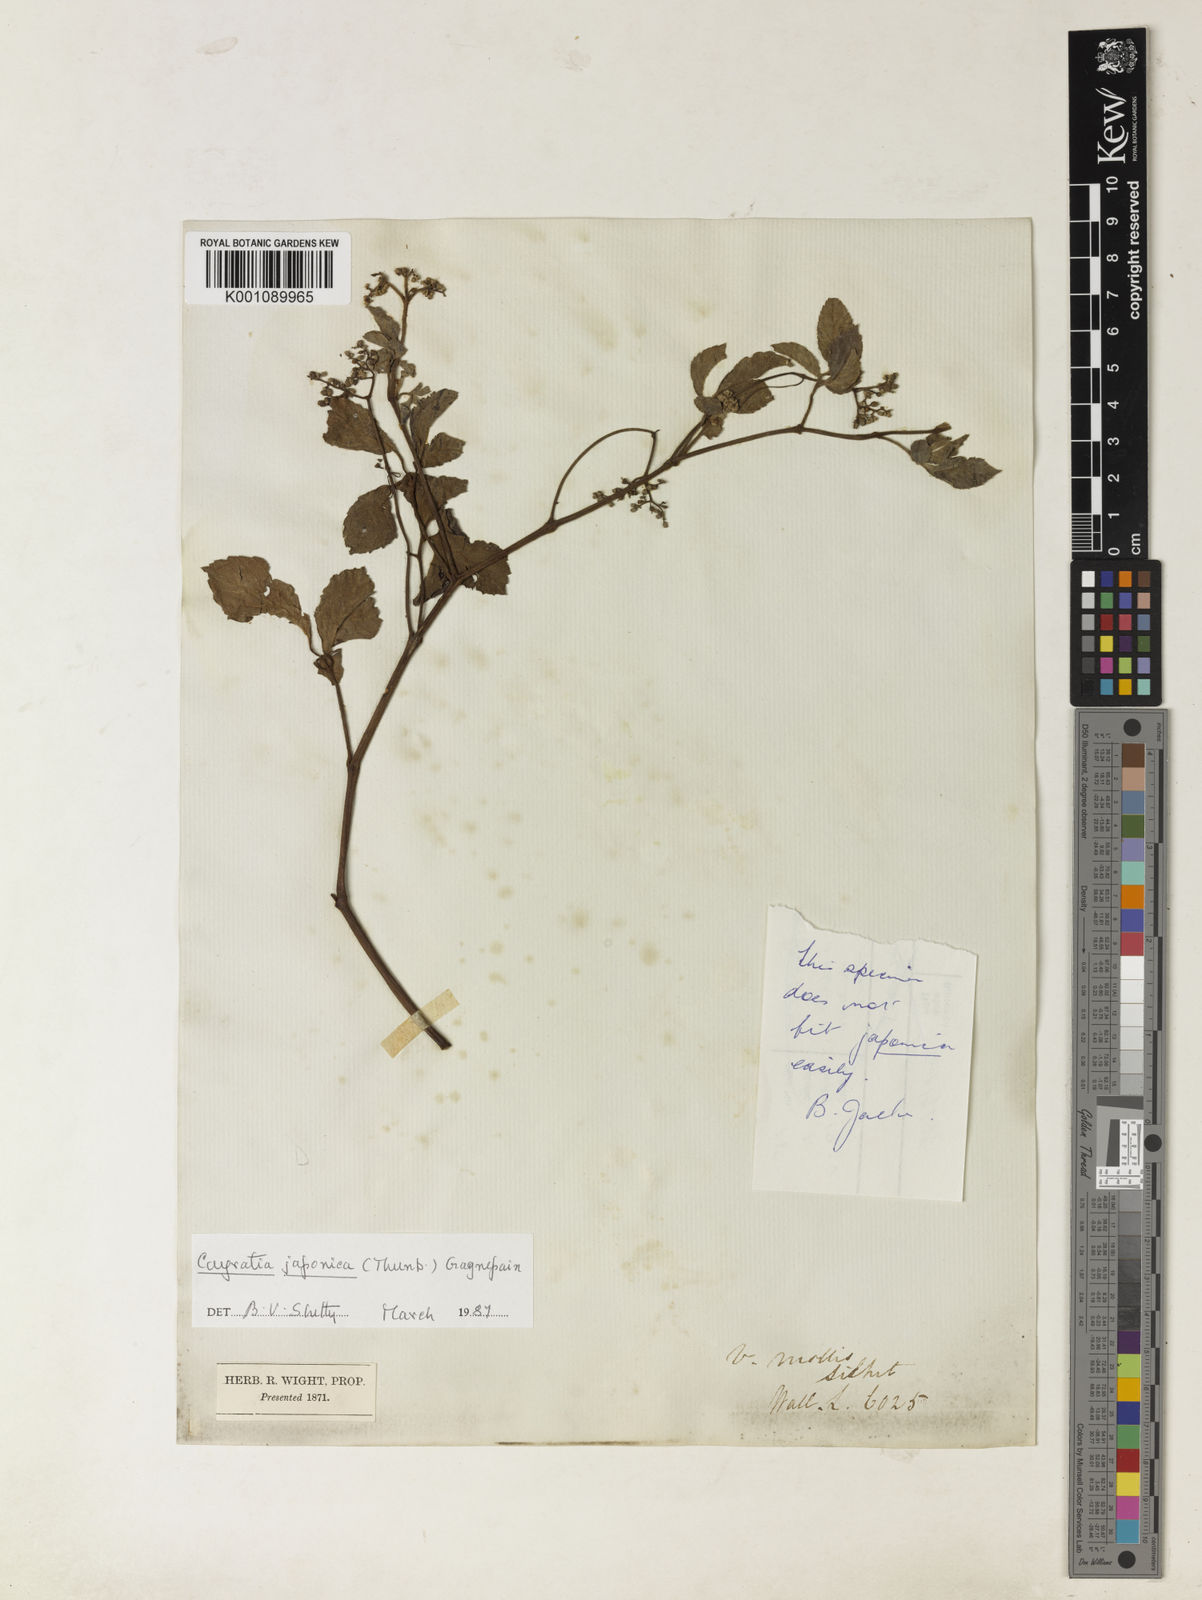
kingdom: Plantae
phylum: Tracheophyta
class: Magnoliopsida
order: Vitales
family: Vitaceae
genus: Causonis
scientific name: Causonis japonica
